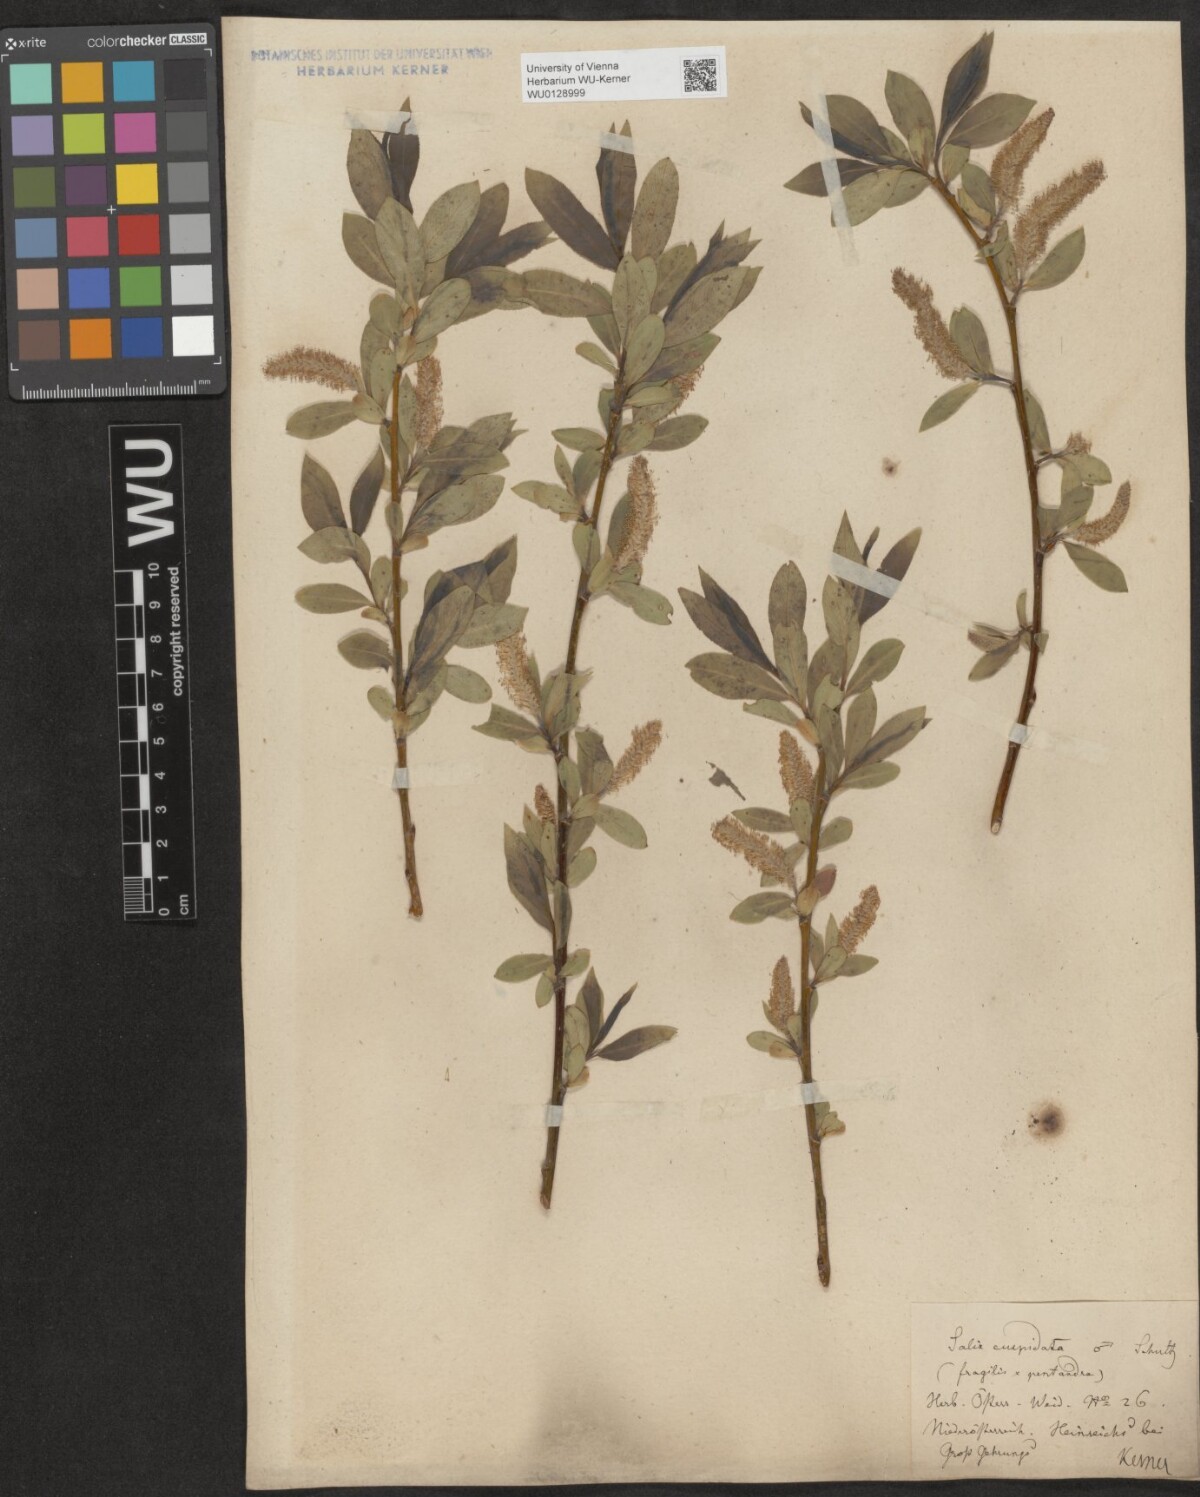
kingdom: Plantae
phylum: Tracheophyta
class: Magnoliopsida
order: Malpighiales
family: Salicaceae
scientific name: Salicaceae
